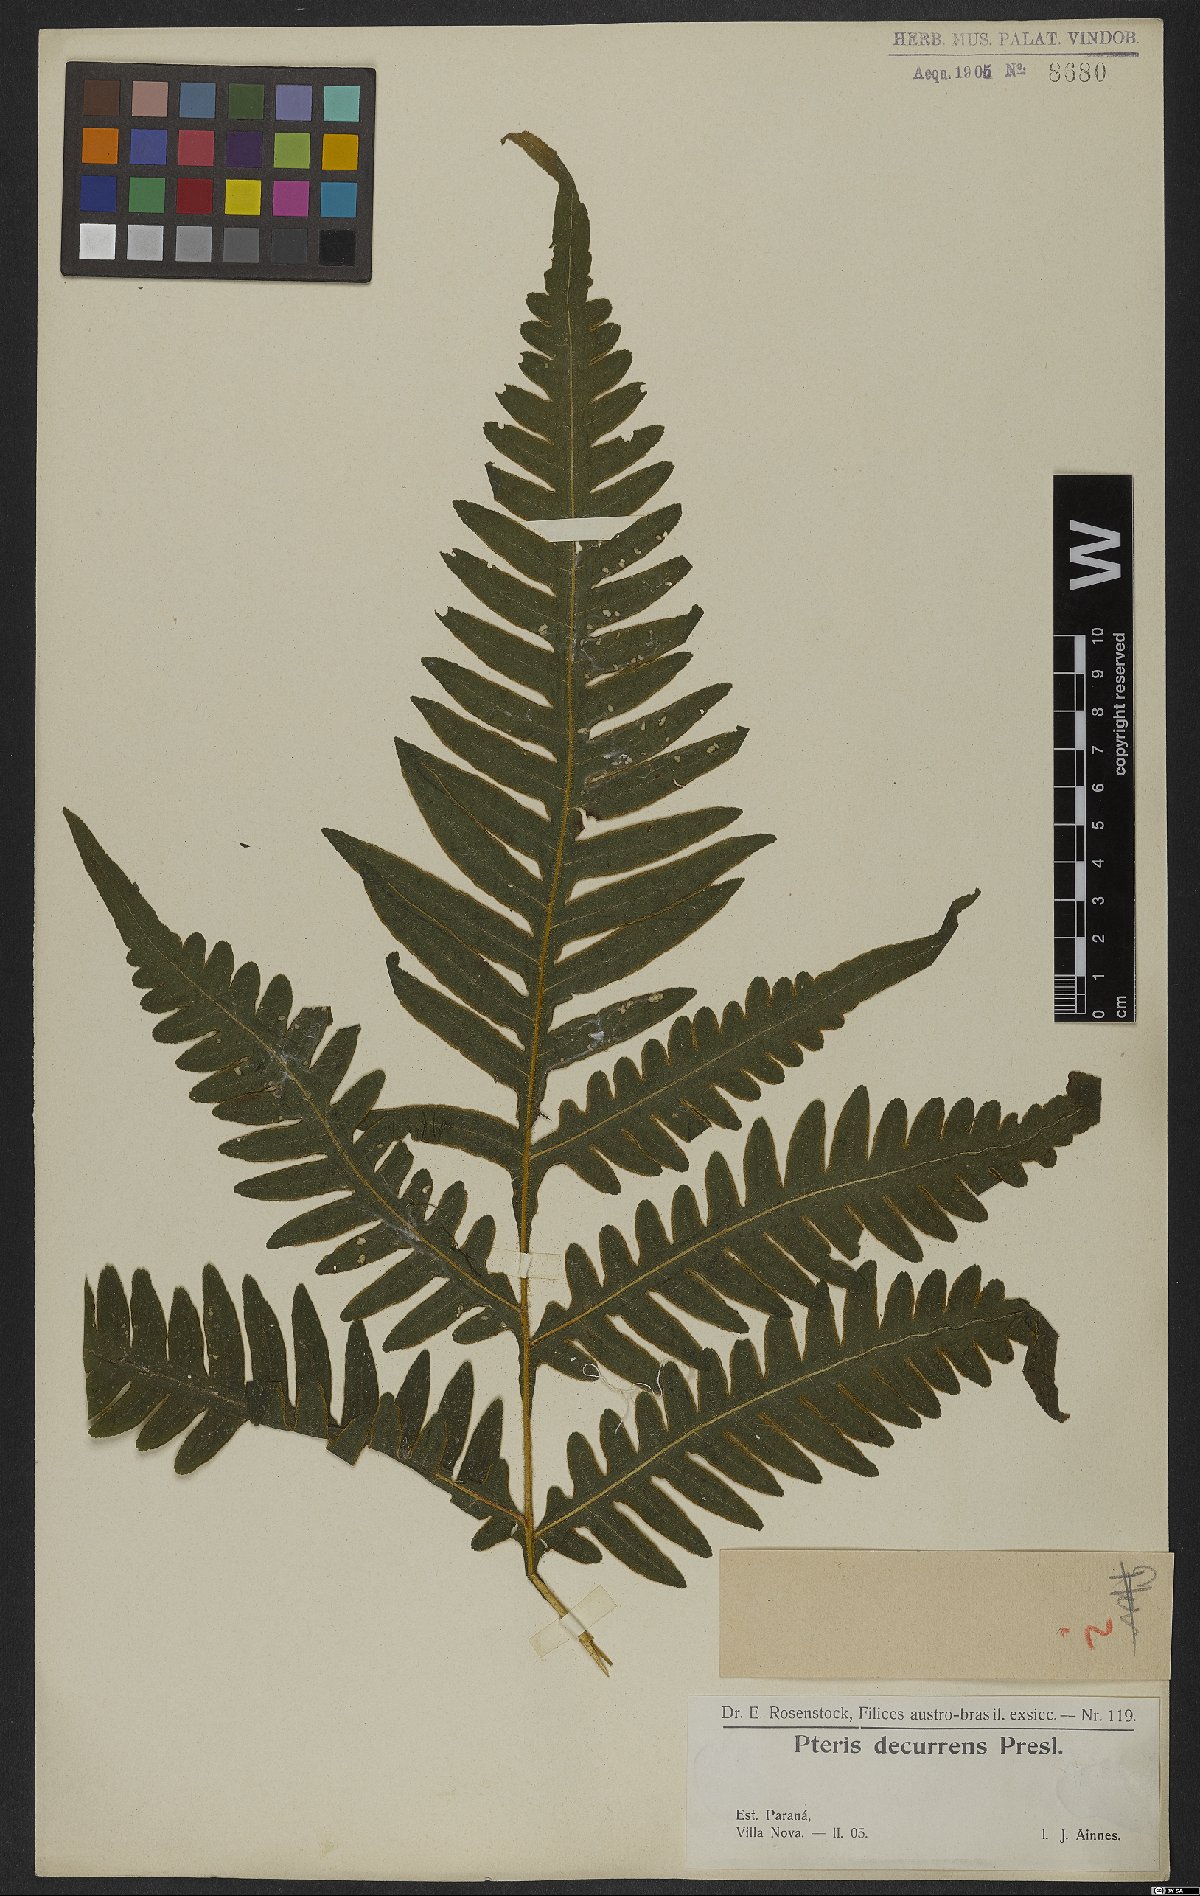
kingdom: Plantae
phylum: Tracheophyta
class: Polypodiopsida
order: Polypodiales
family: Pteridaceae
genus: Pteris
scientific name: Pteris decurrens
